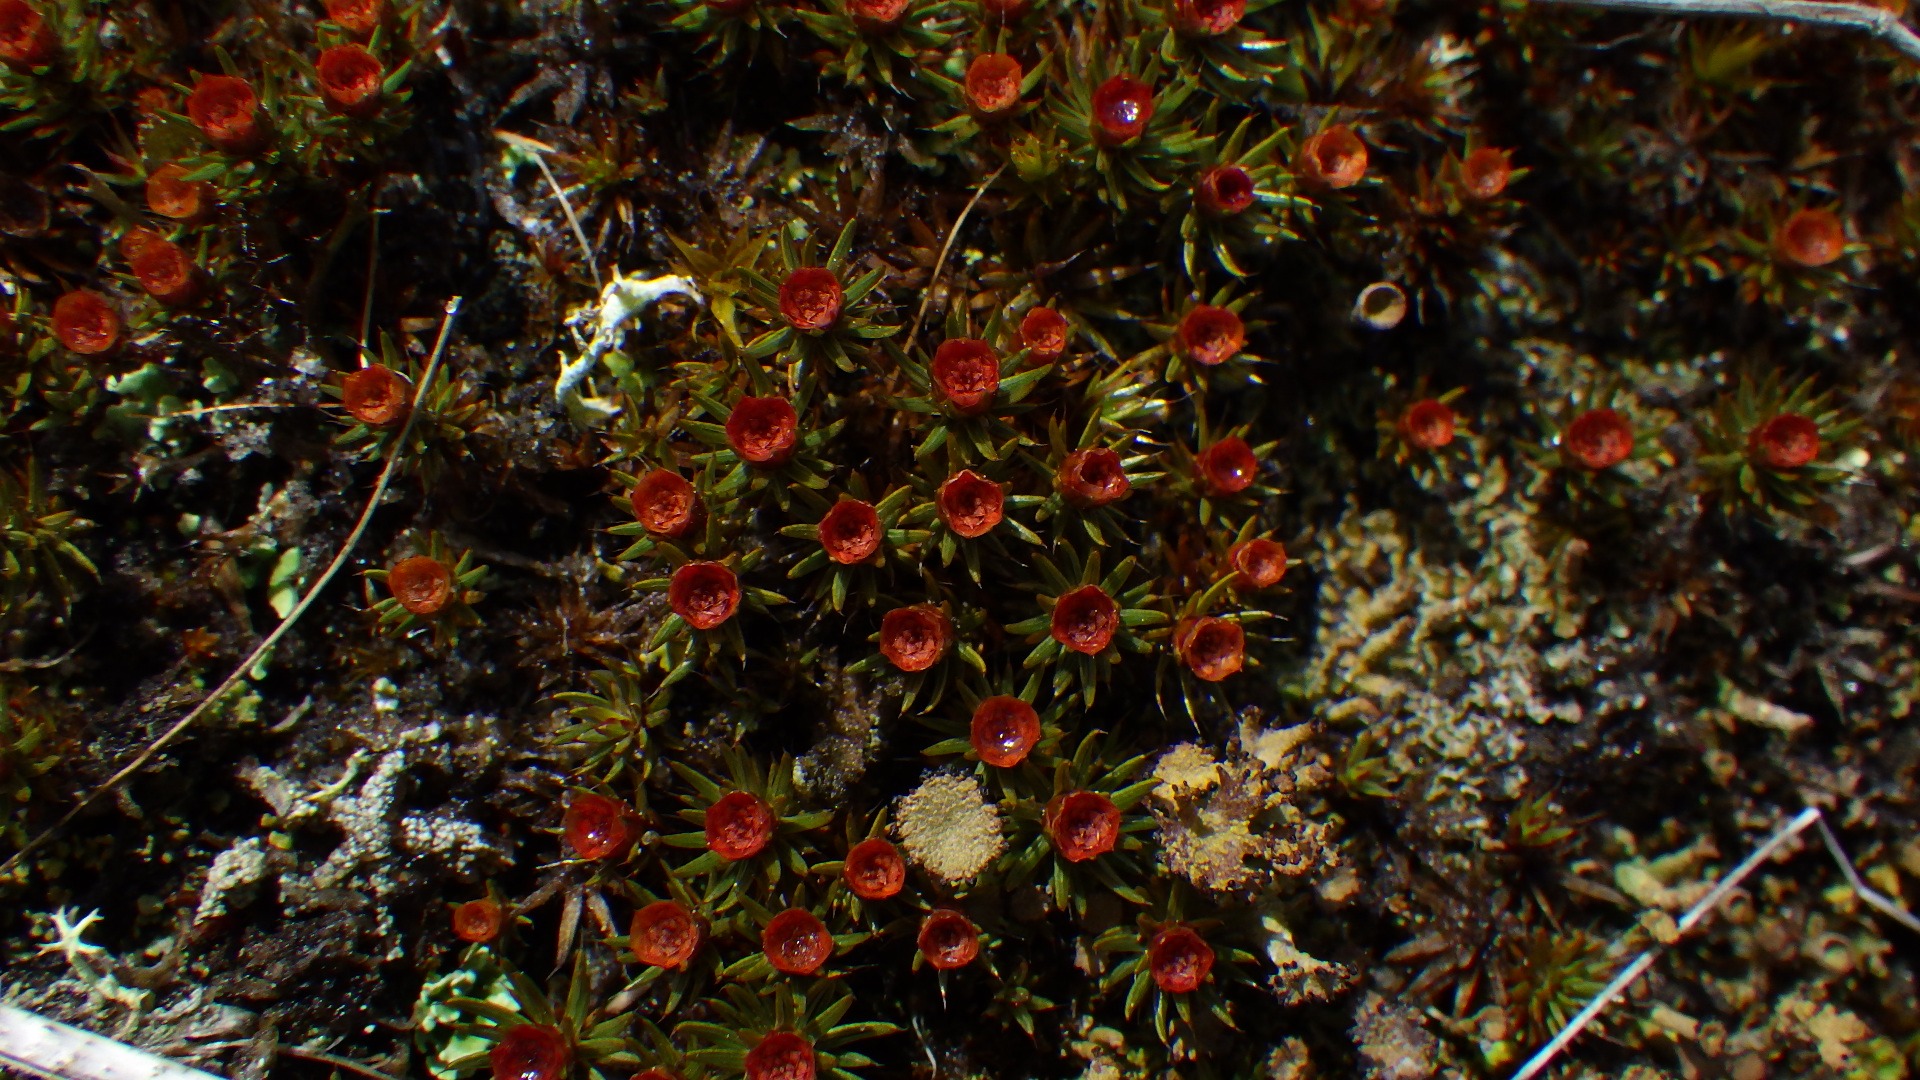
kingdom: Plantae
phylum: Bryophyta
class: Polytrichopsida
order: Polytrichales
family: Polytrichaceae
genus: Polytrichum
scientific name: Polytrichum piliferum
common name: Hårspidset jomfruhår
